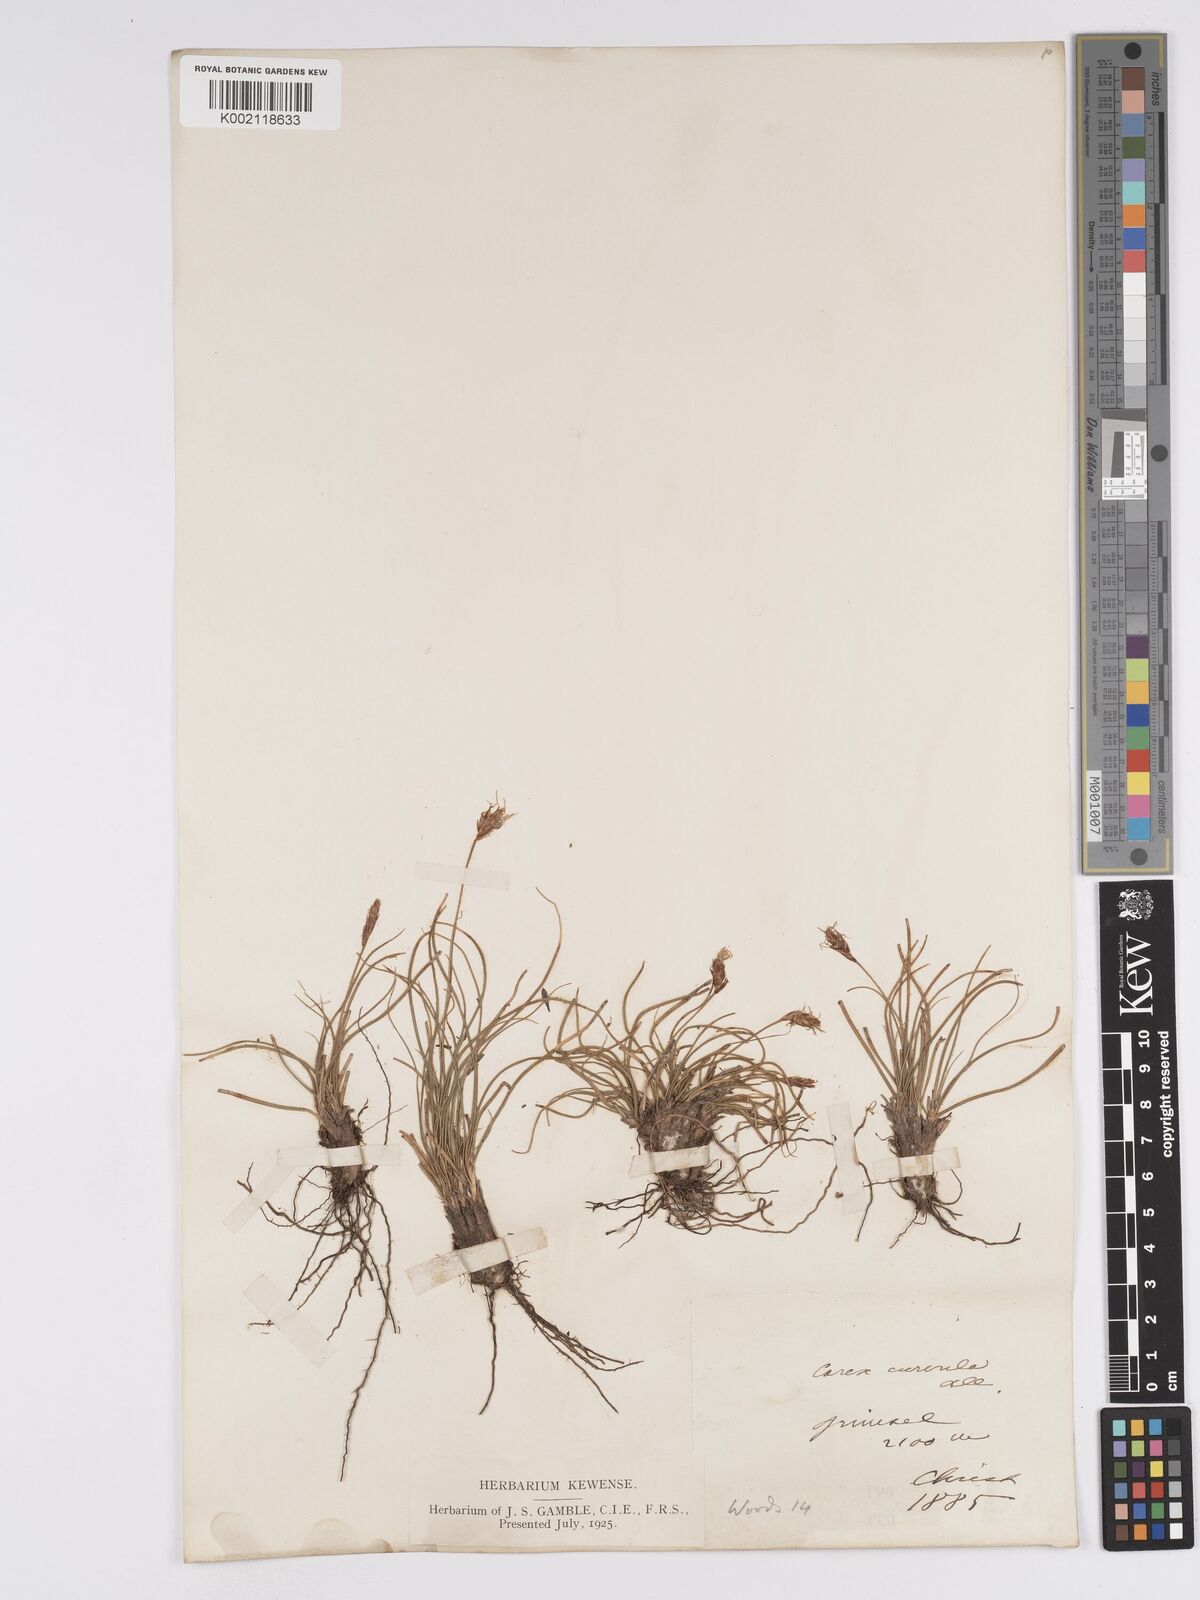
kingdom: Plantae
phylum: Tracheophyta
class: Liliopsida
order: Poales
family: Cyperaceae
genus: Carex
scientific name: Carex curvula
